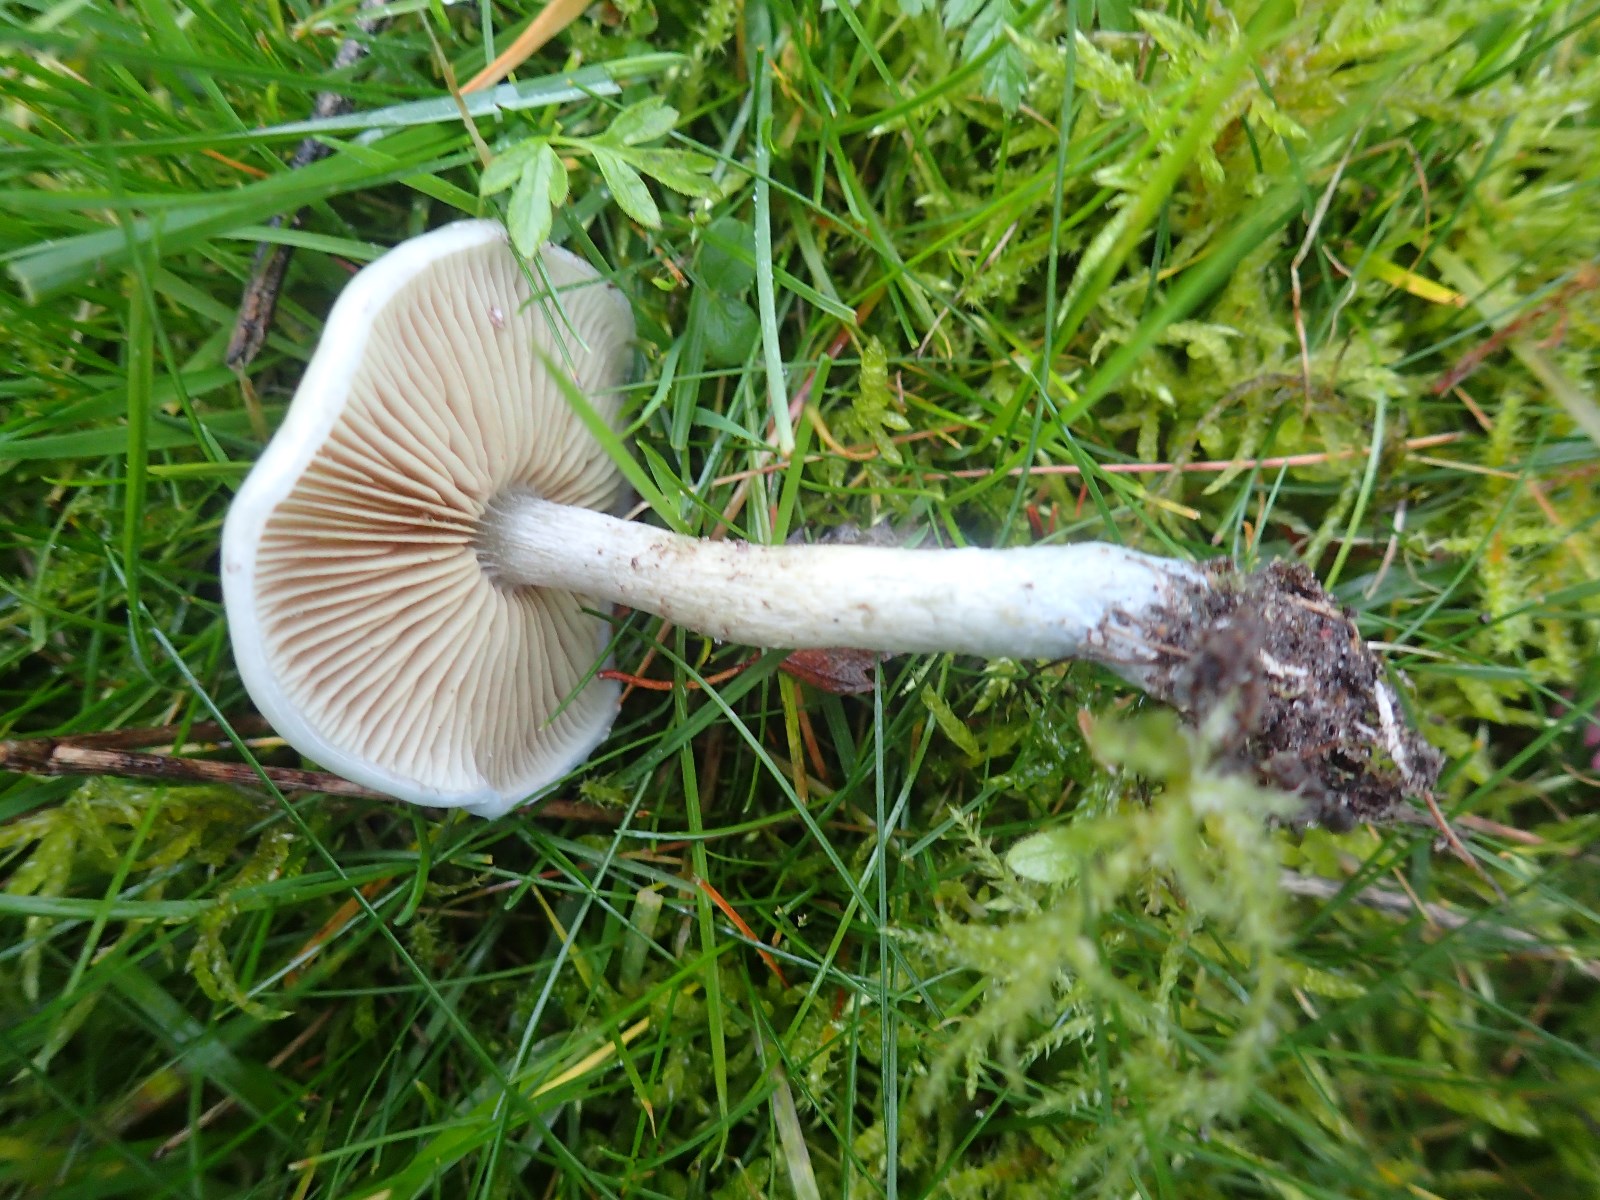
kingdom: Fungi
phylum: Basidiomycota
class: Agaricomycetes
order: Agaricales
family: Strophariaceae
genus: Stropharia
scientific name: Stropharia pseudocyanea
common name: blegblå bredblad
